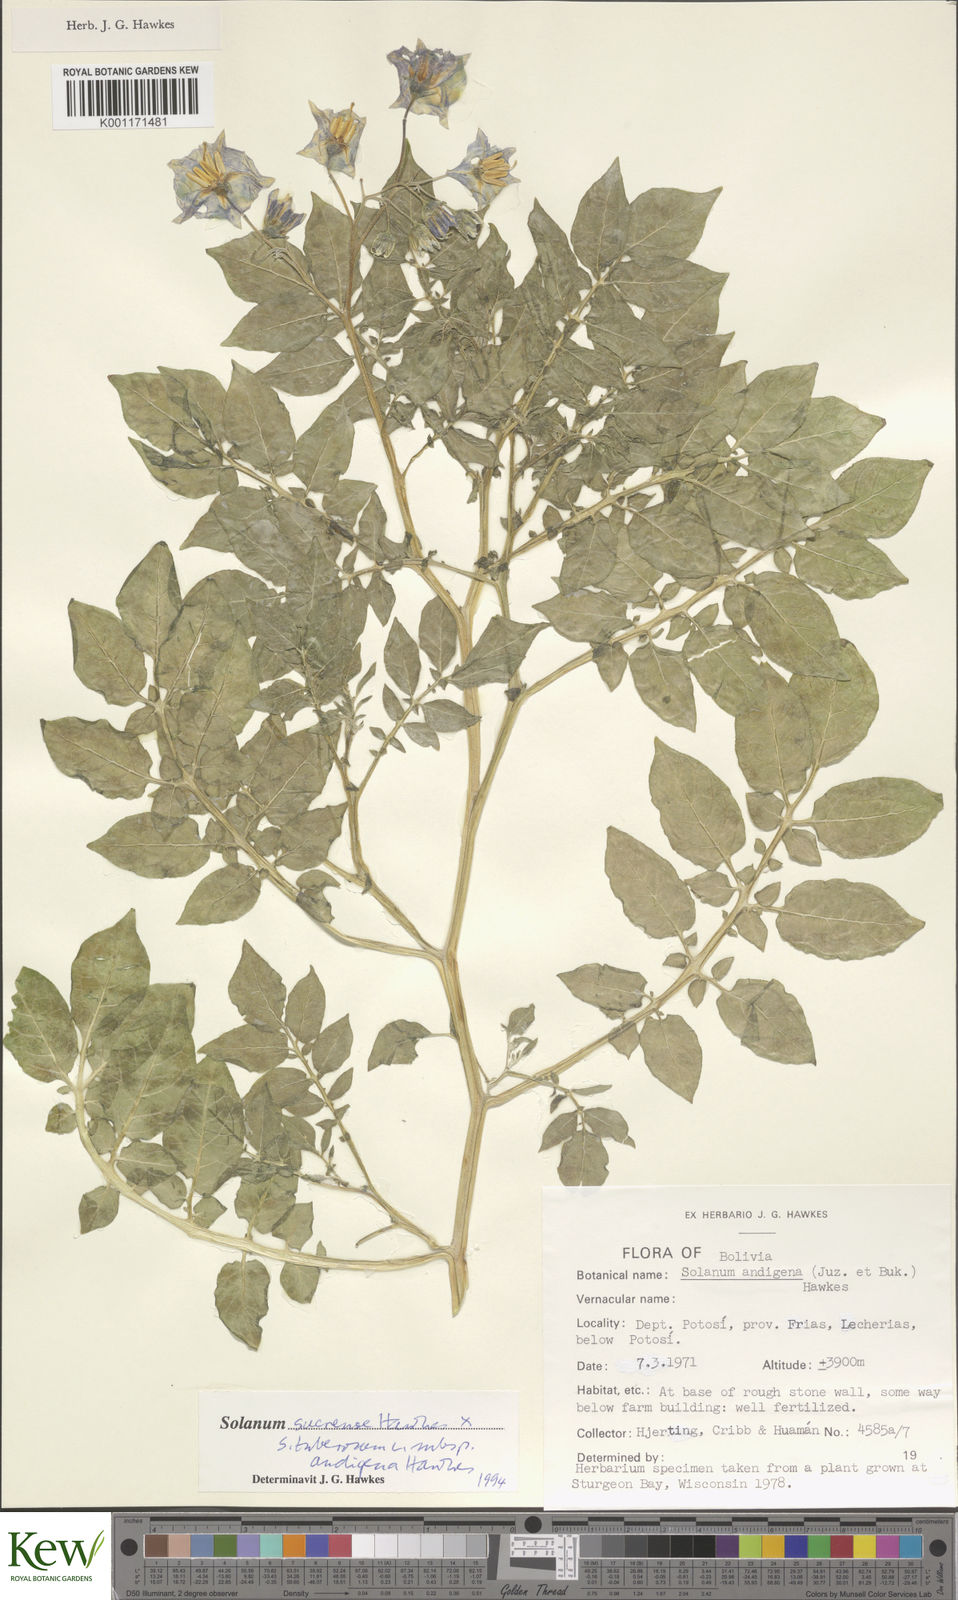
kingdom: Plantae
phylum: Tracheophyta
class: Magnoliopsida
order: Solanales
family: Solanaceae
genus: Solanum
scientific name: Solanum tuberosum
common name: Potato
